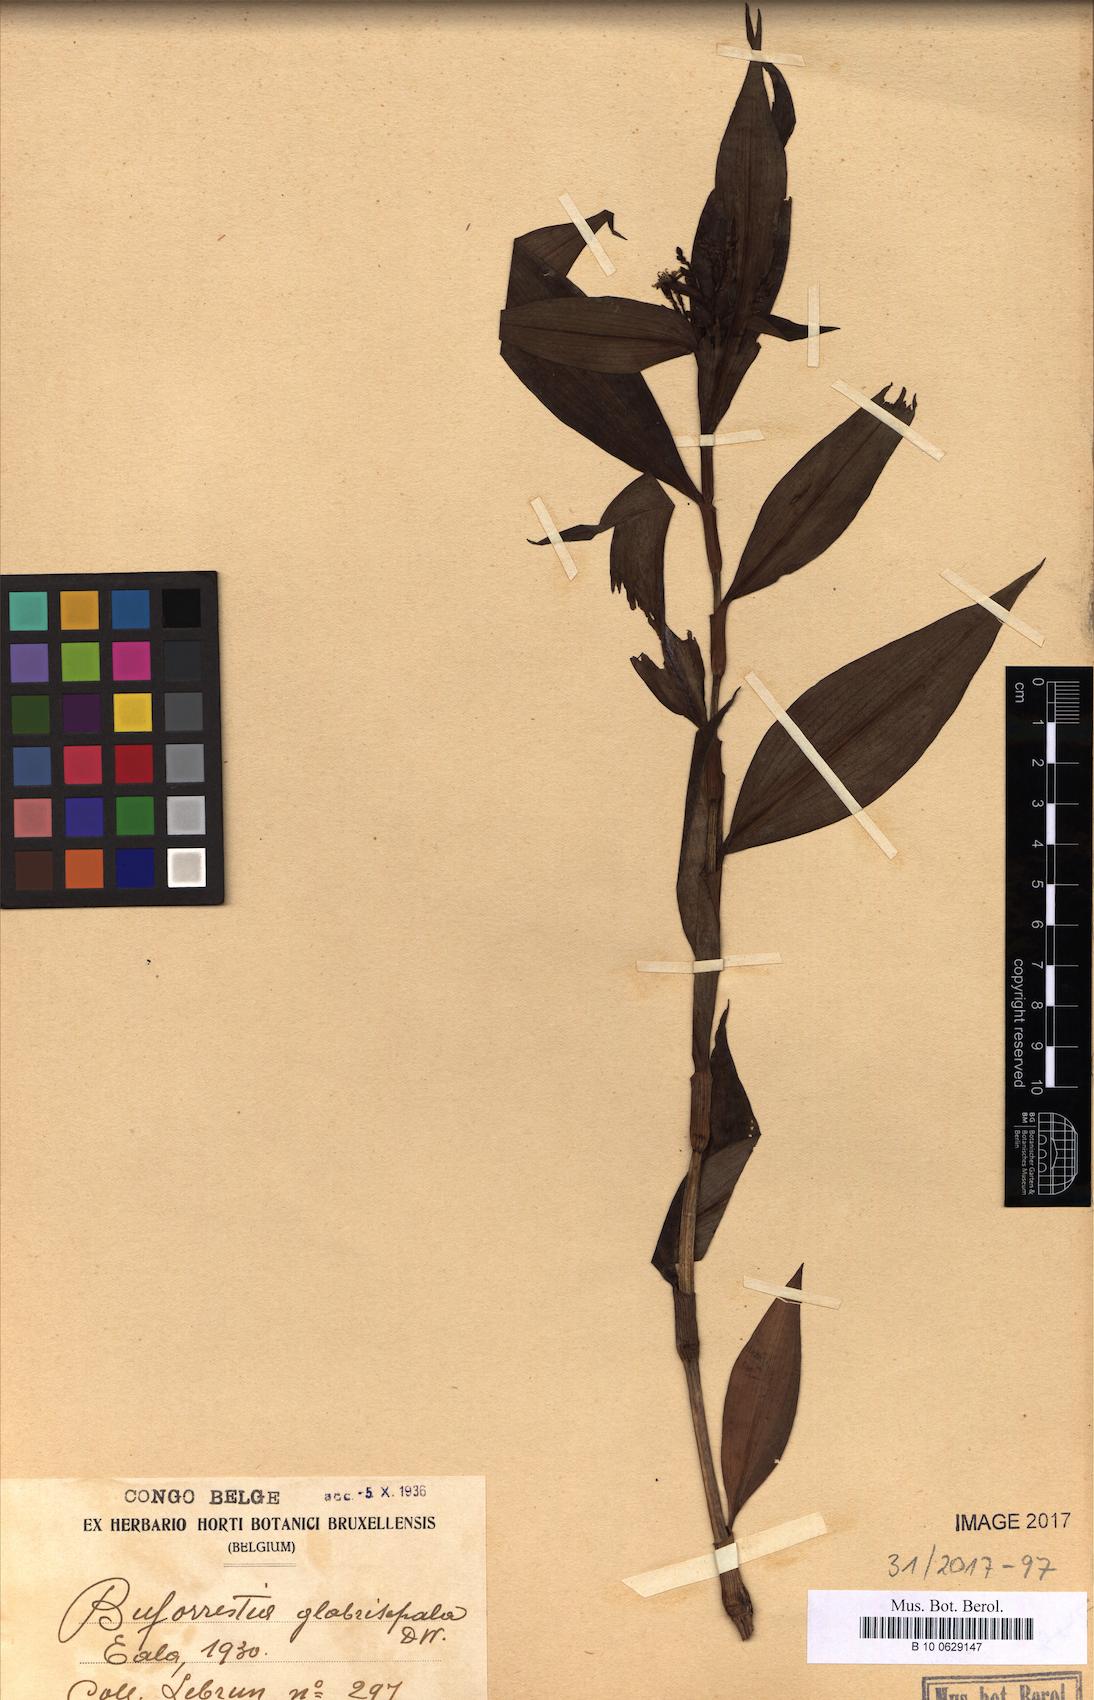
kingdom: Plantae
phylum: Tracheophyta
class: Liliopsida
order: Commelinales
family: Commelinaceae
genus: Stanfieldiella
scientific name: Stanfieldiella imperforata
